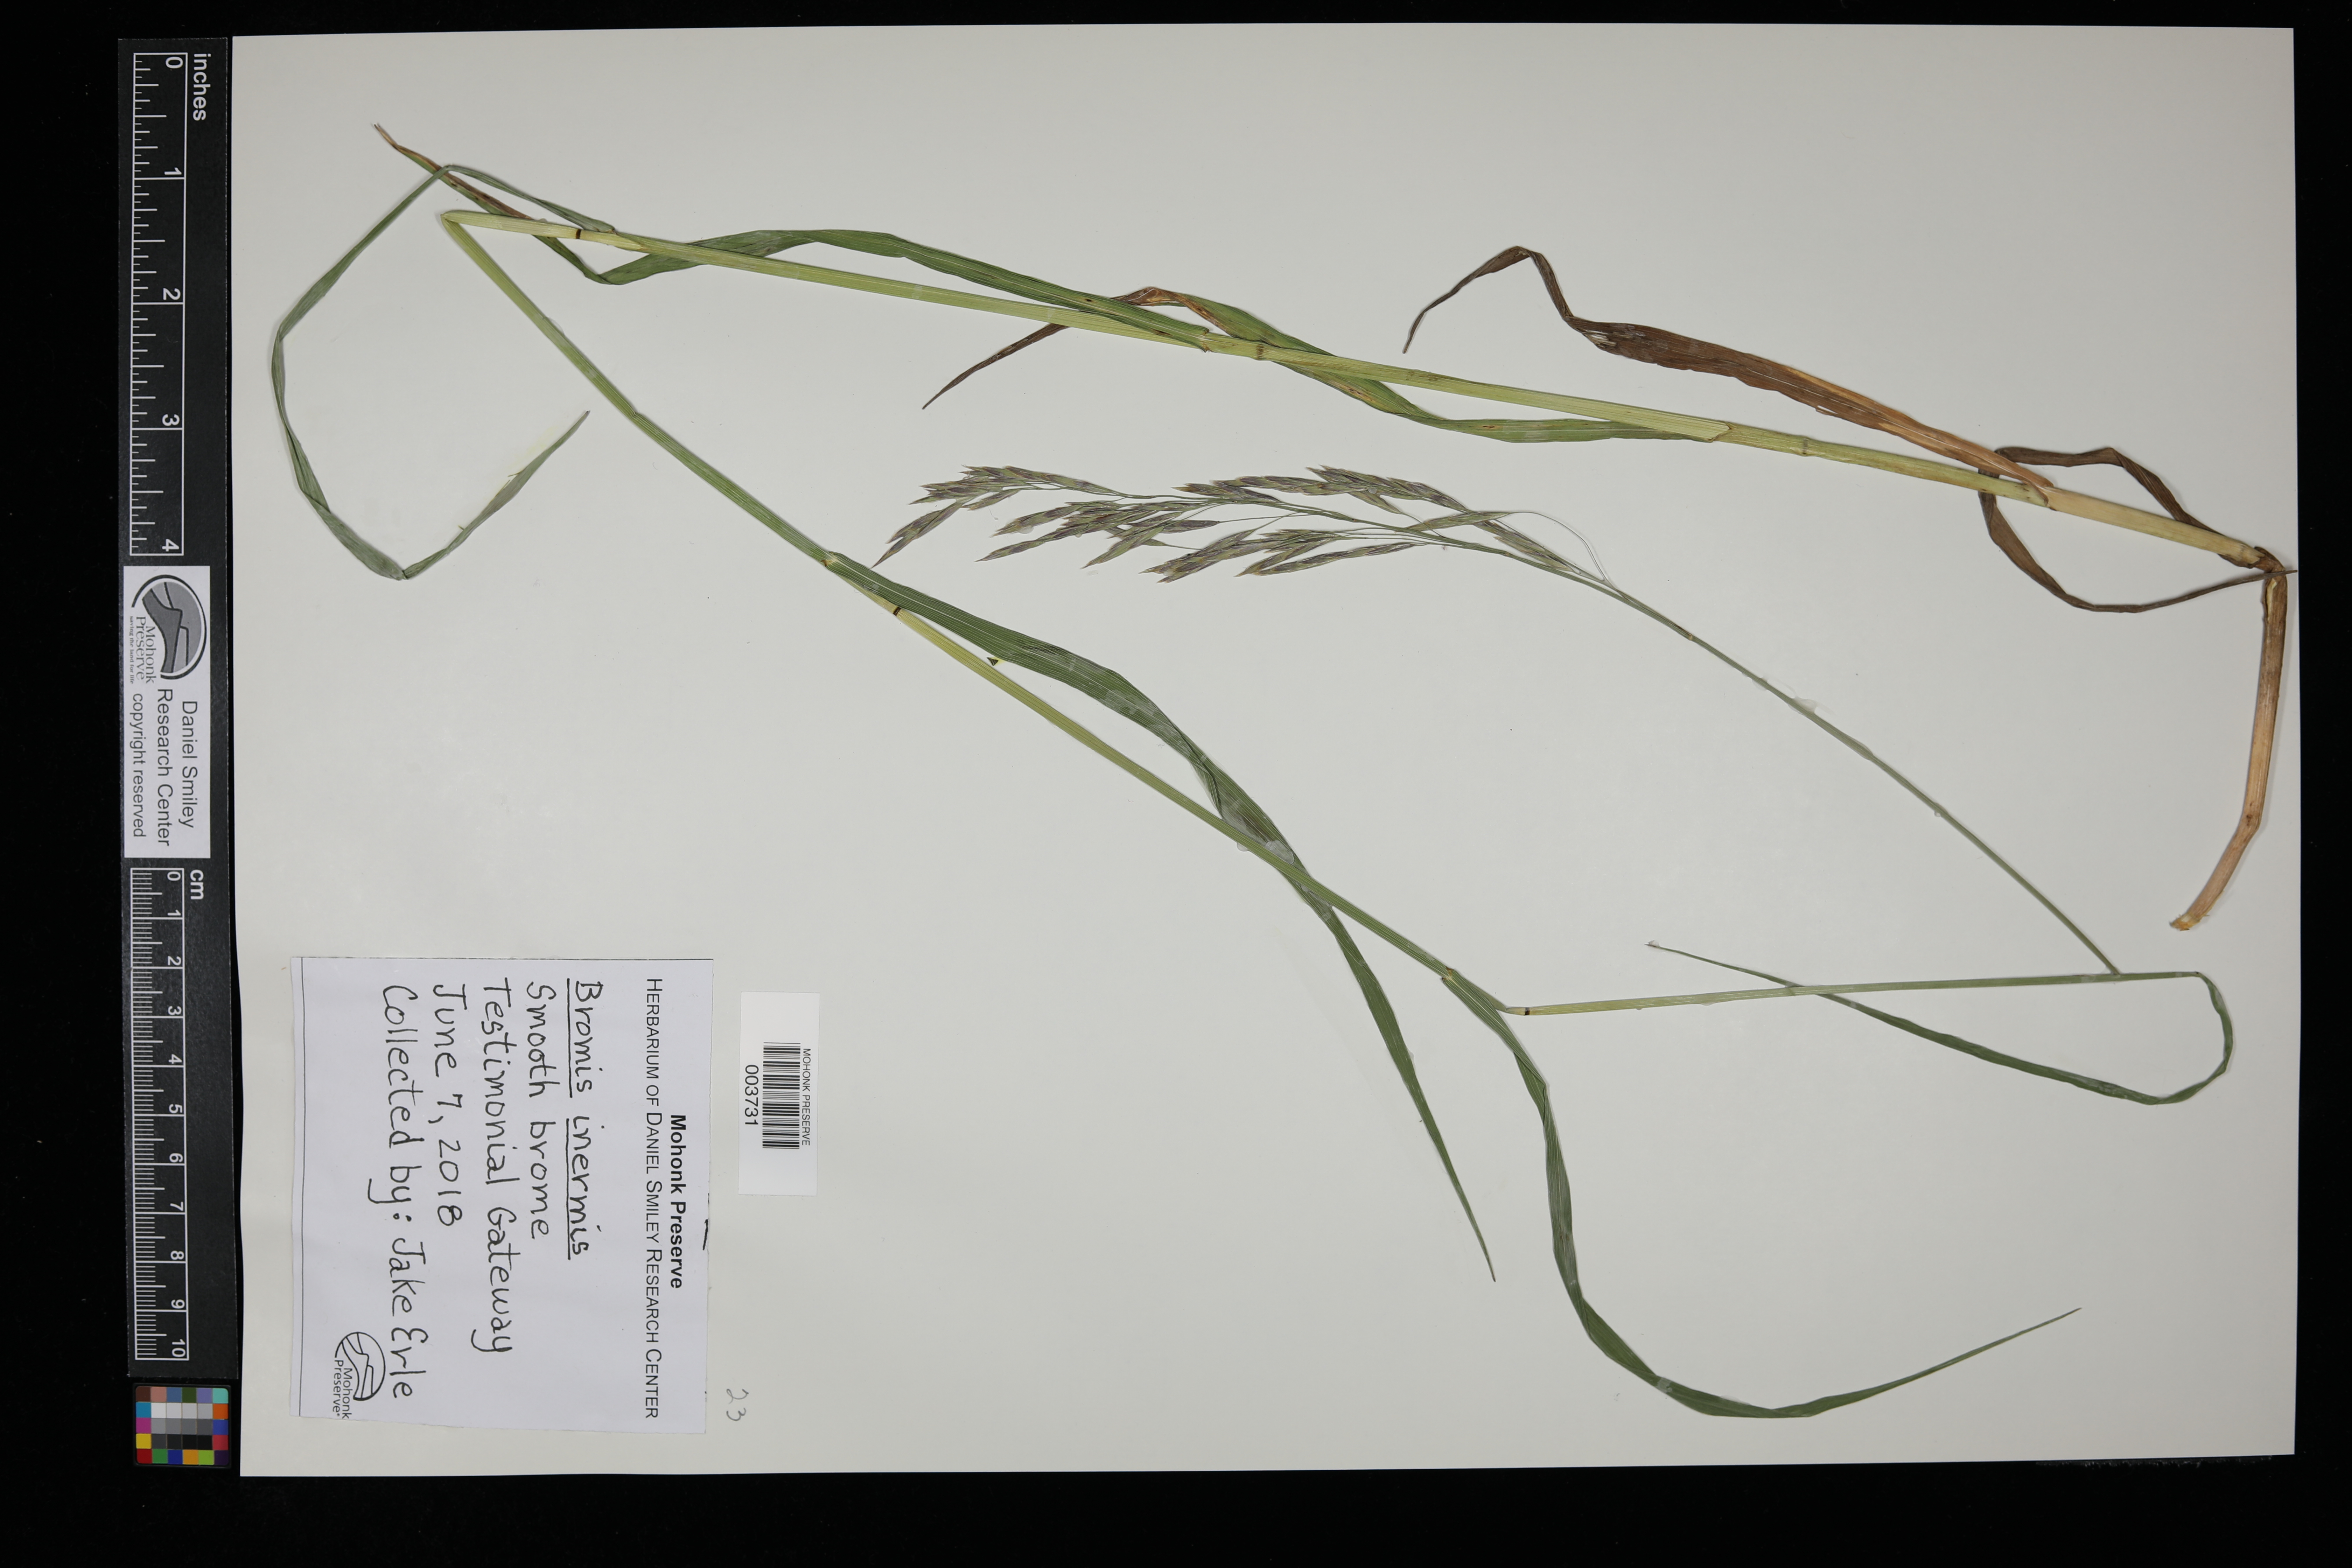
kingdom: Plantae
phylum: Tracheophyta
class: Liliopsida
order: Poales
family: Poaceae
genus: Bromus
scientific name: Bromus inermis
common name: Smooth brome
